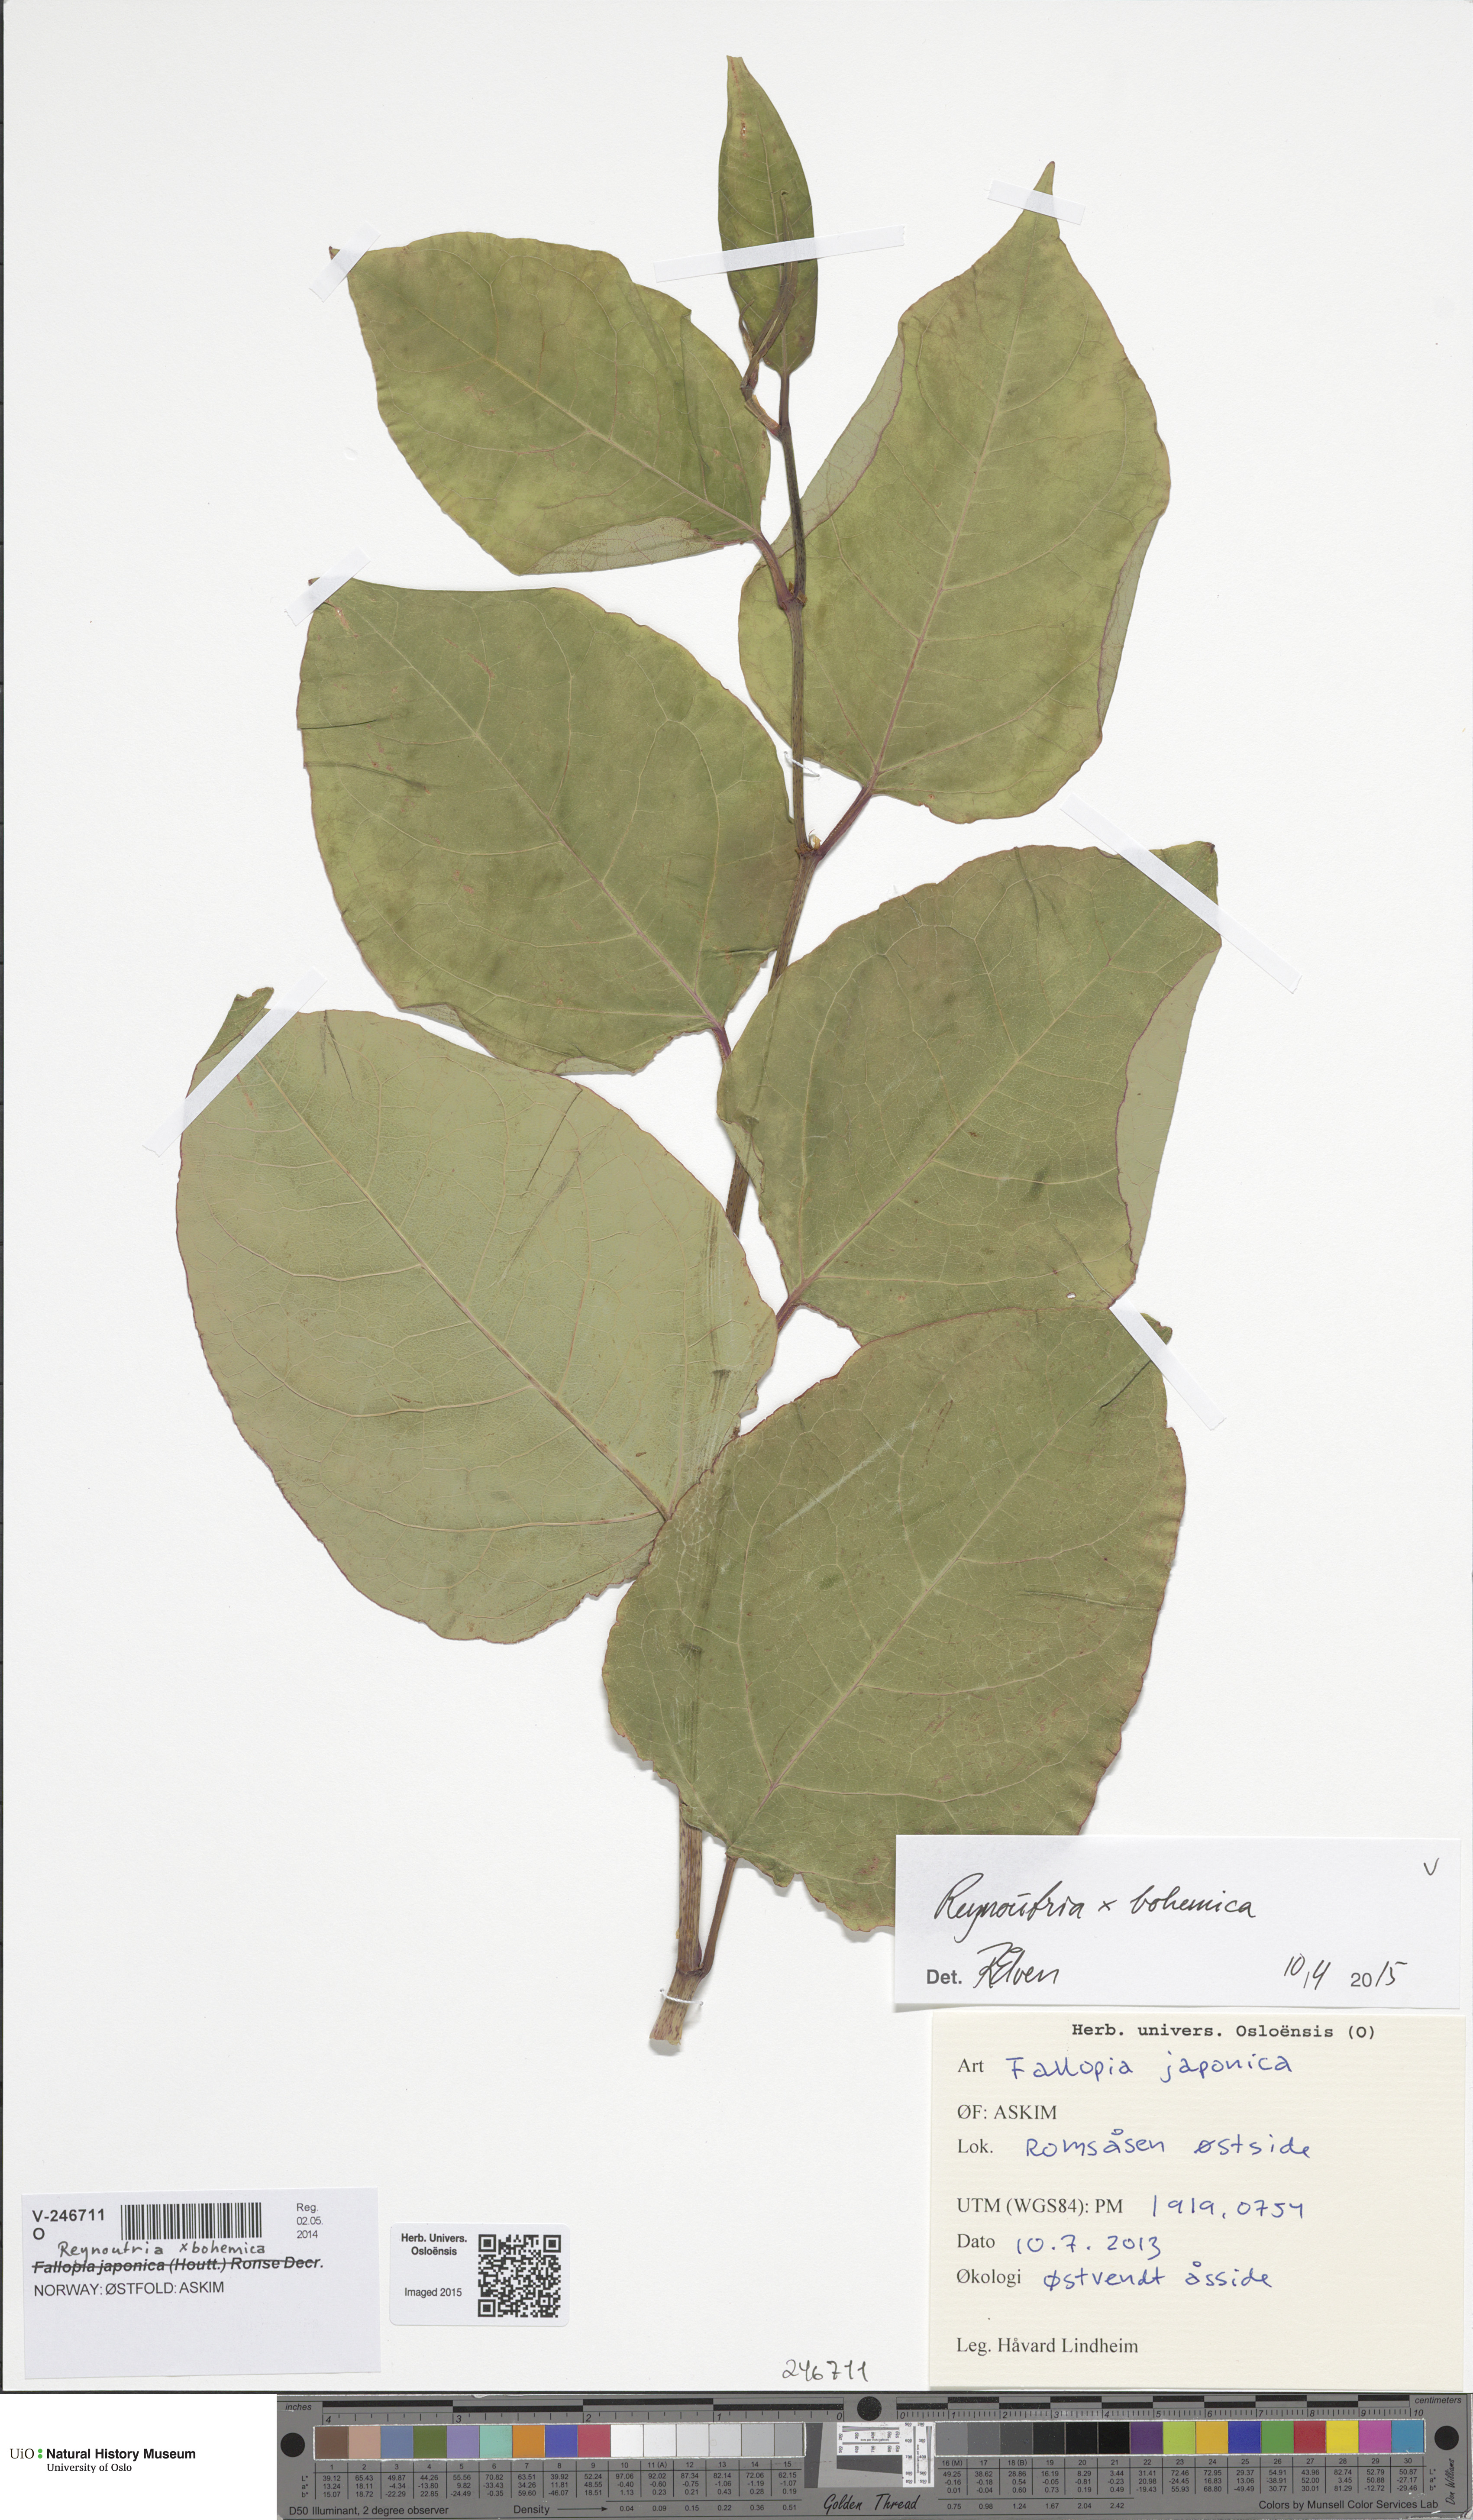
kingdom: Plantae
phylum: Tracheophyta
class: Magnoliopsida
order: Caryophyllales
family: Polygonaceae
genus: Reynoutria
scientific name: Reynoutria bohemica
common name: Bohemian knotweed
